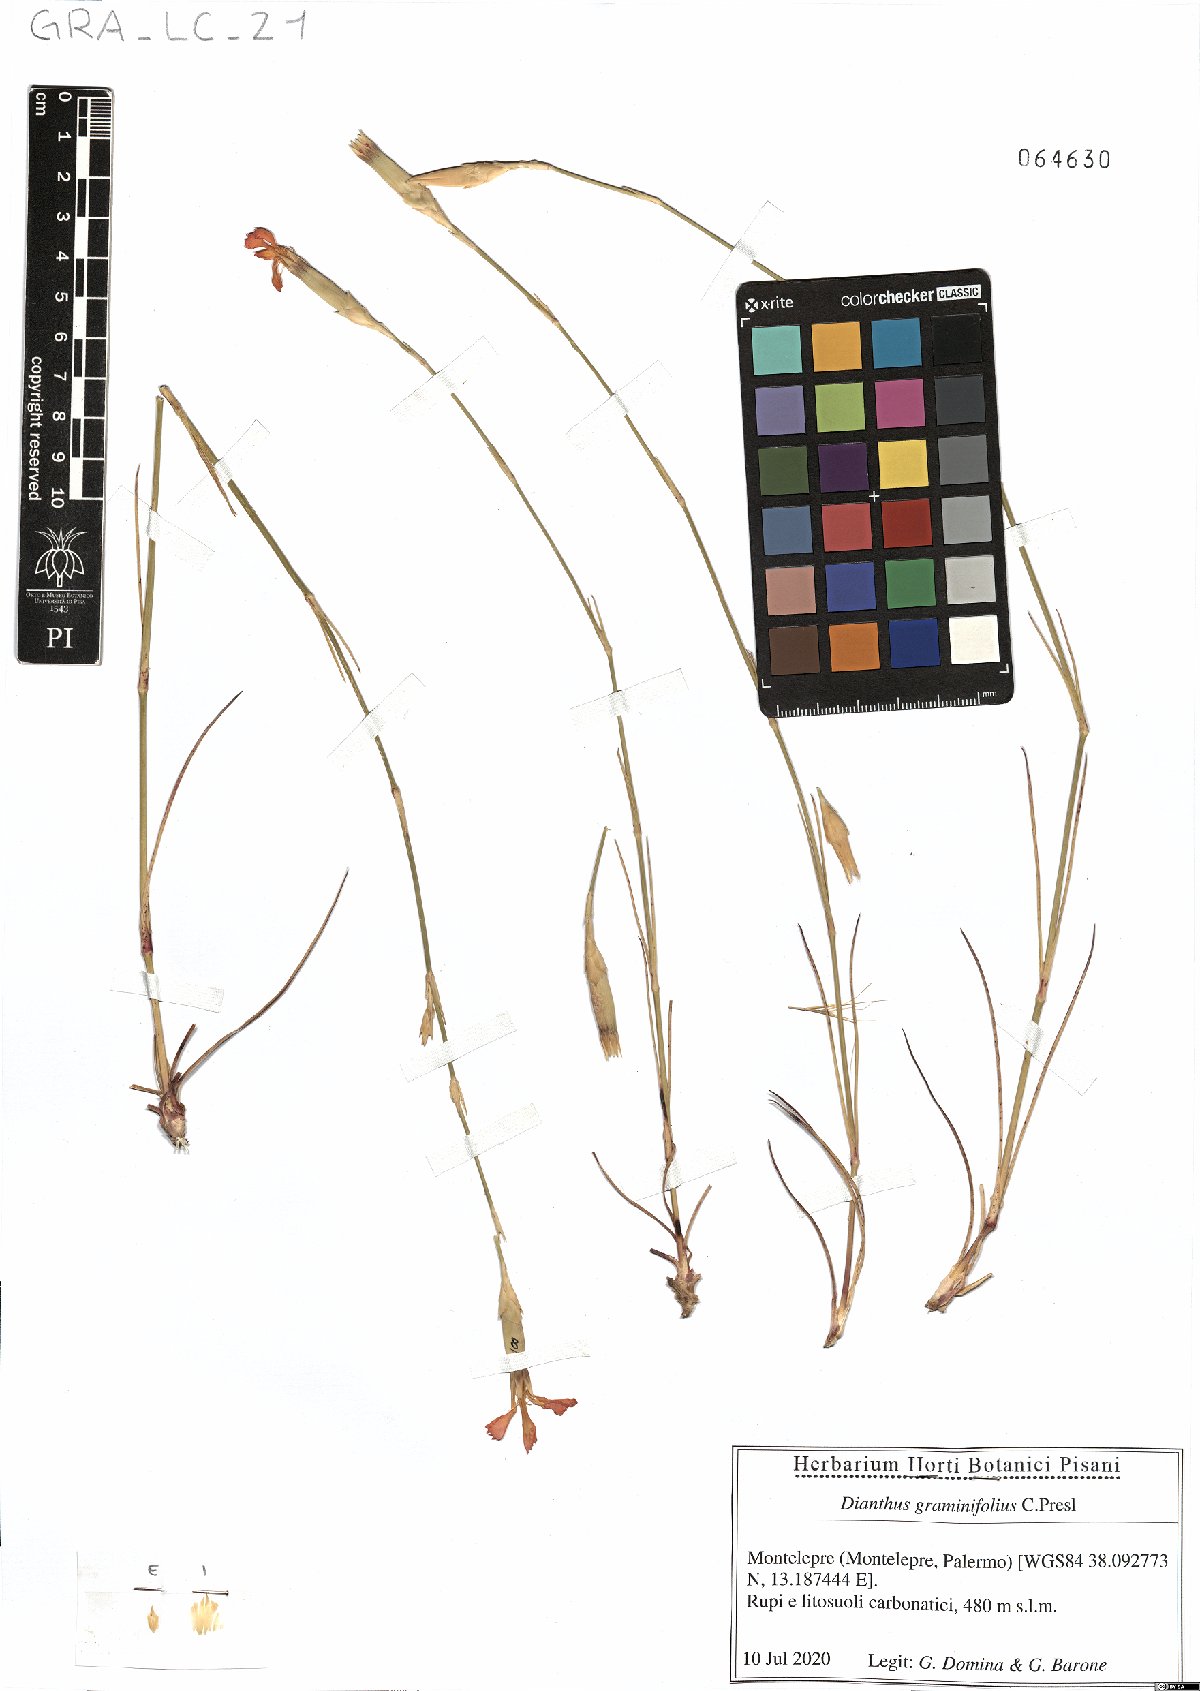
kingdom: Plantae
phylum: Tracheophyta
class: Magnoliopsida
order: Caryophyllales
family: Caryophyllaceae
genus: Dianthus
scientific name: Dianthus graminifolius
